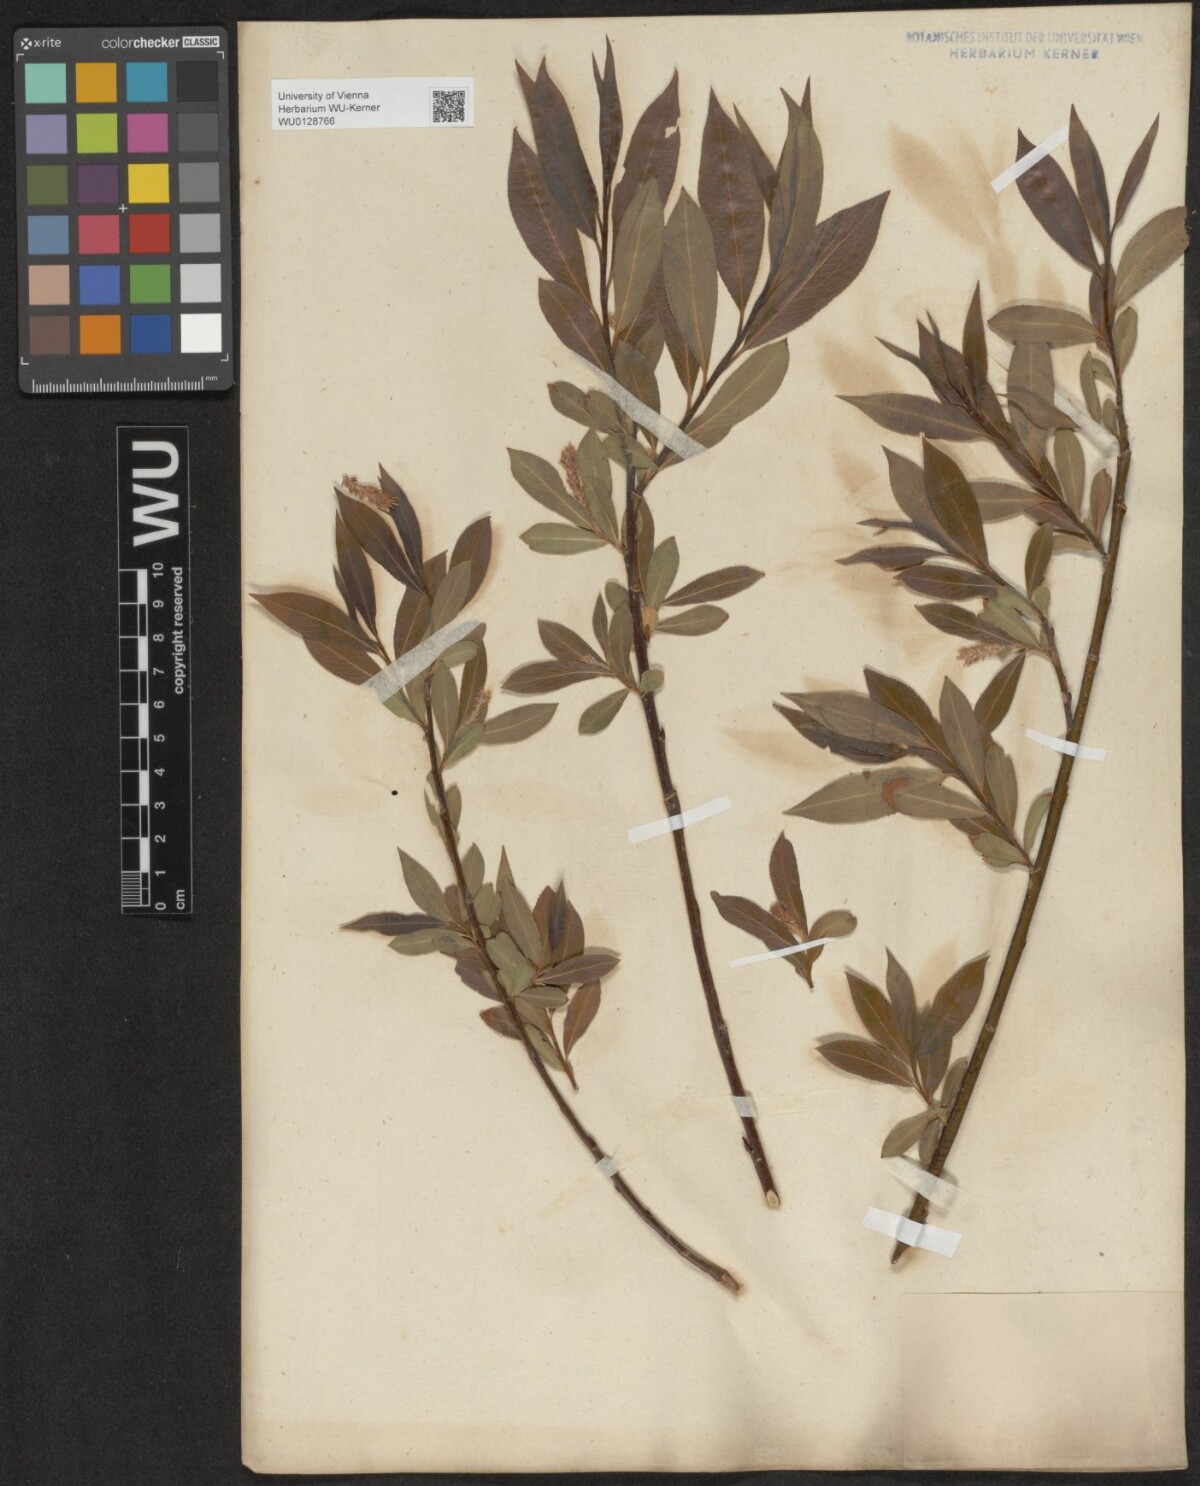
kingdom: Plantae
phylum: Tracheophyta
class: Magnoliopsida
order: Malpighiales
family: Salicaceae
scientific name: Salicaceae
